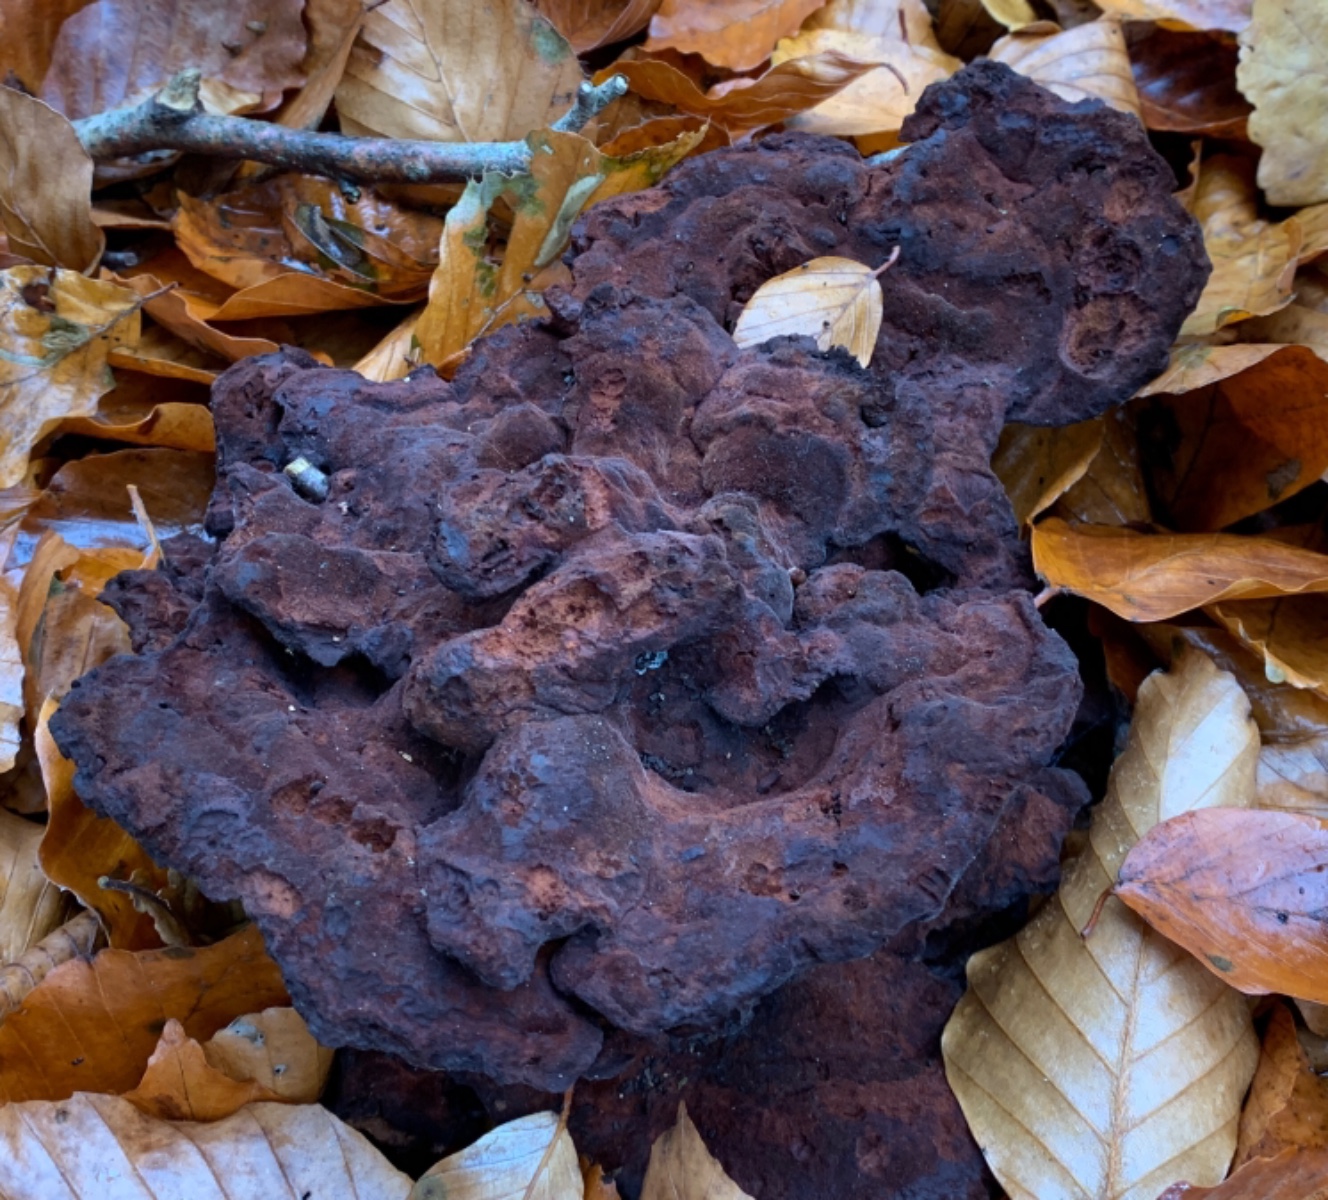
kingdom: Fungi
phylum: Basidiomycota
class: Agaricomycetes
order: Polyporales
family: Laetiporaceae
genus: Phaeolus
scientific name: Phaeolus schweinitzii
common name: brunporesvamp
